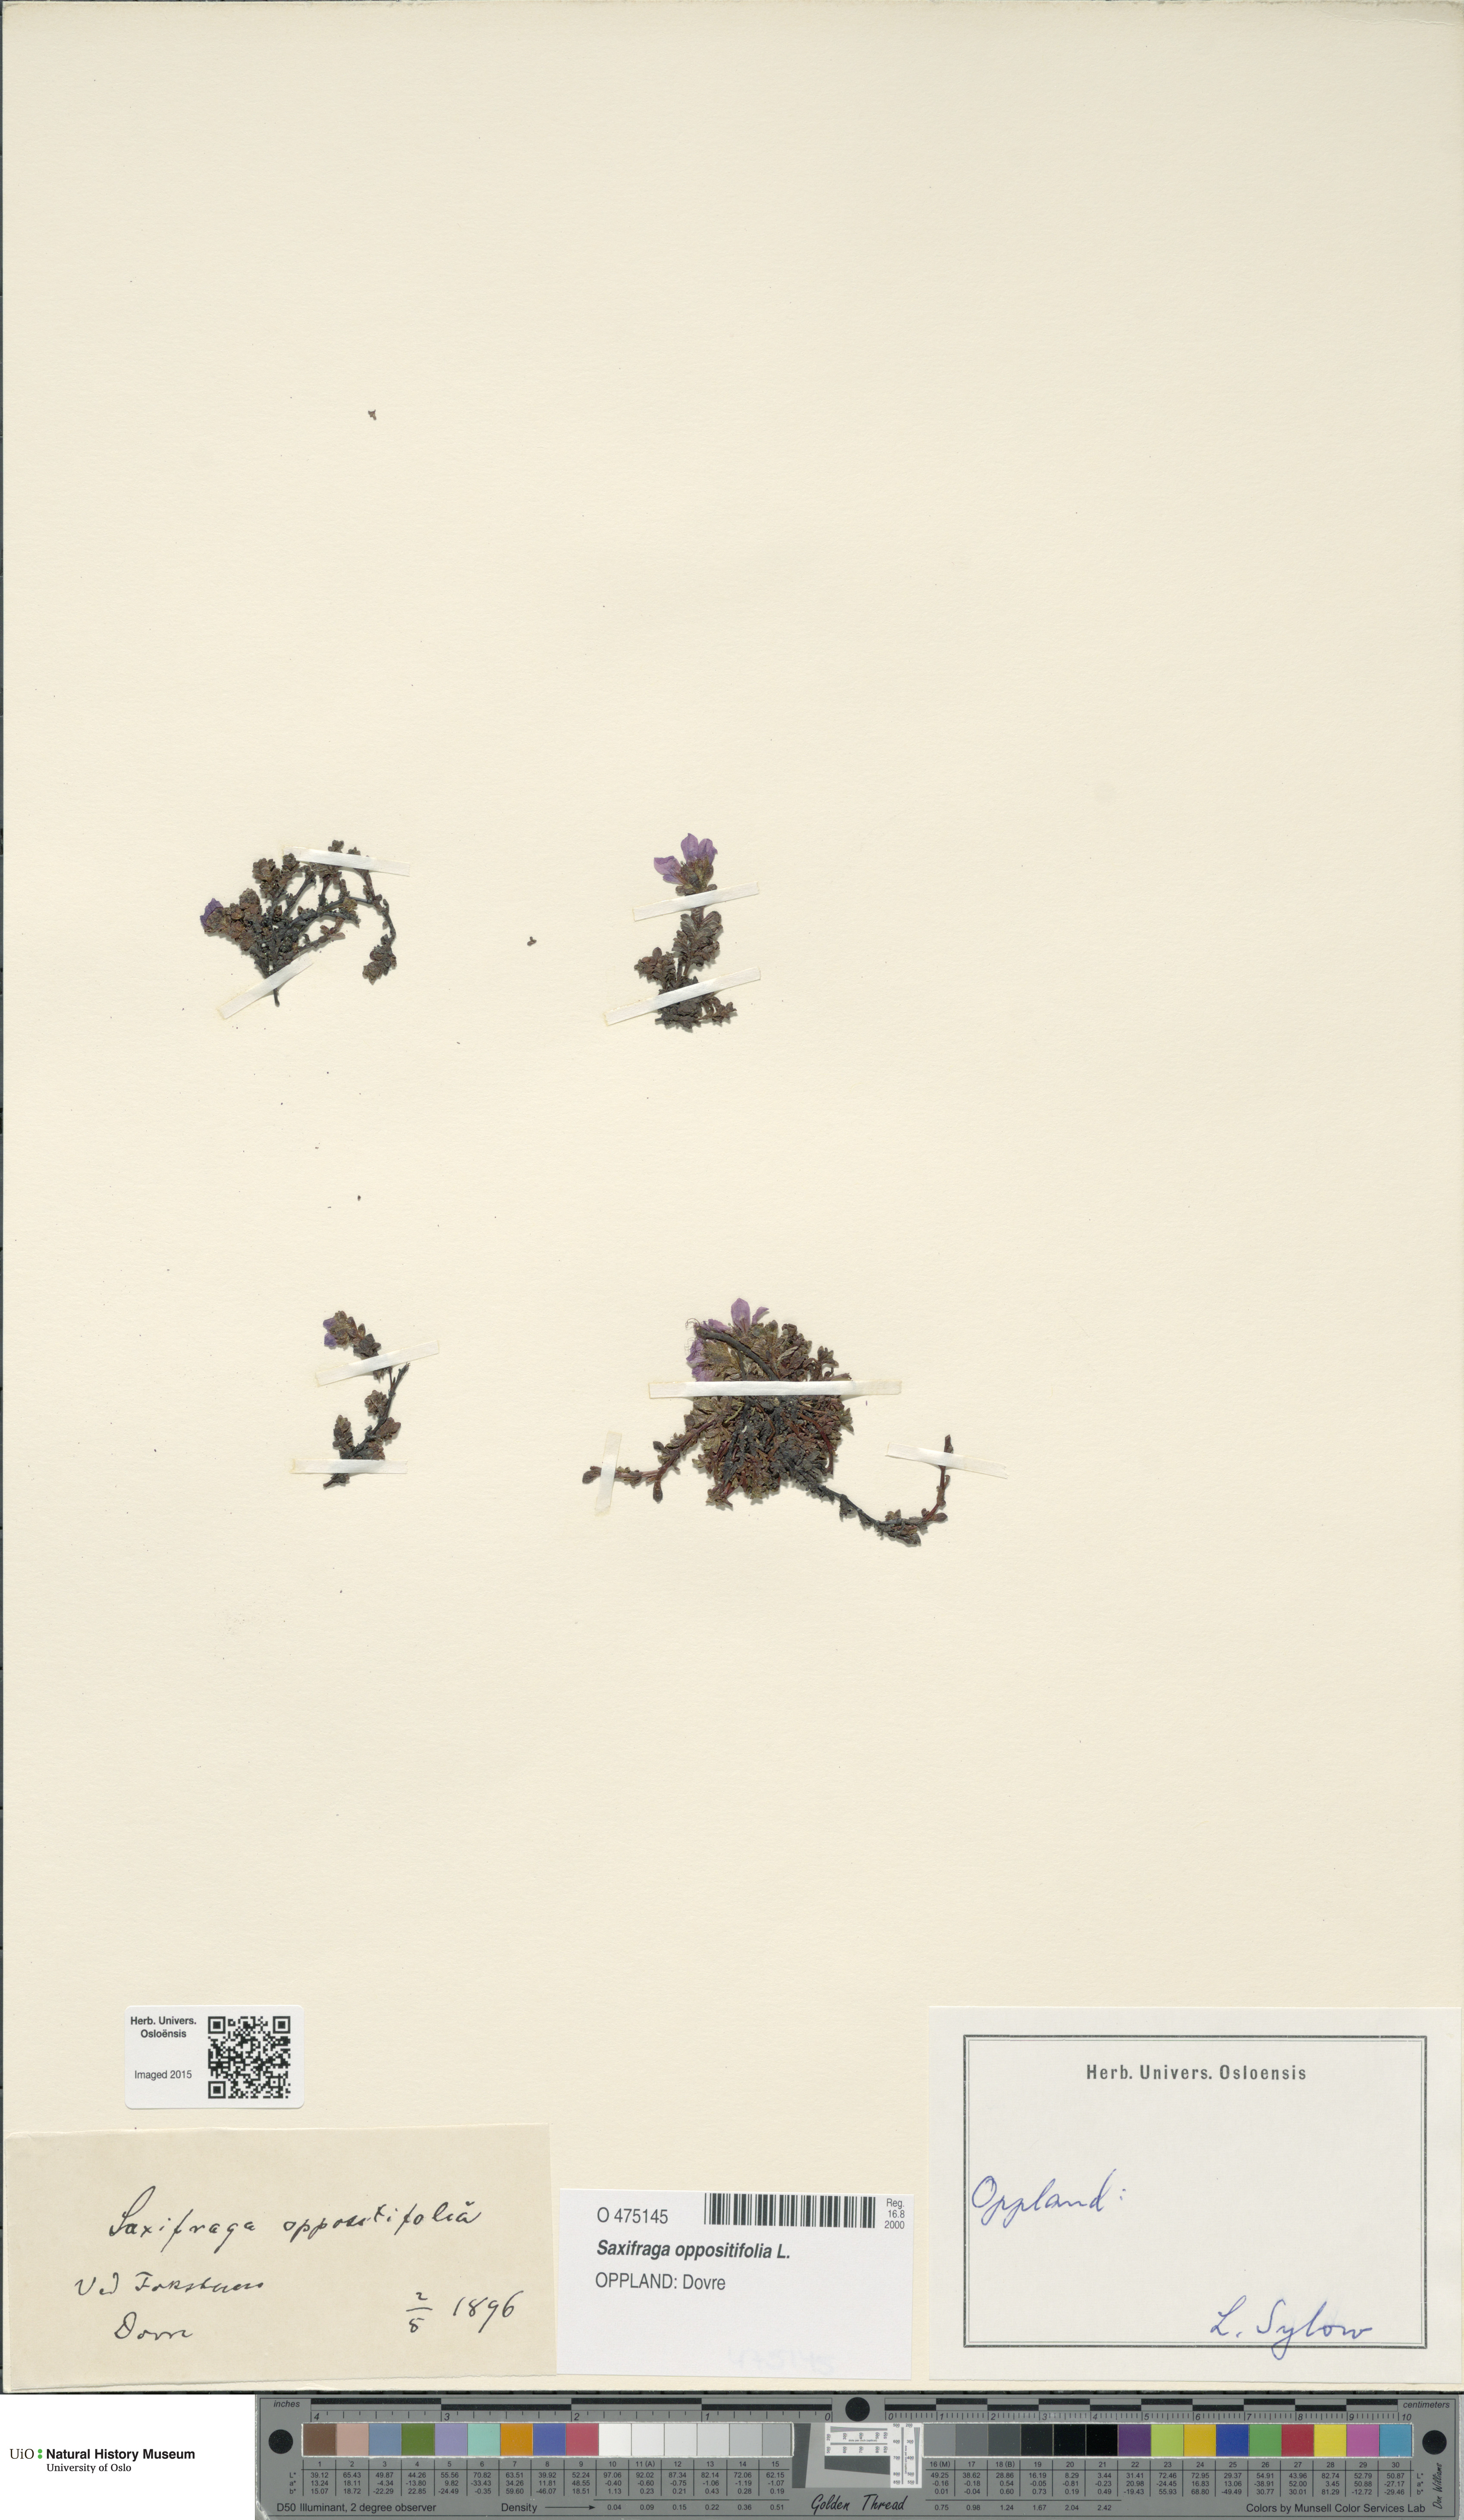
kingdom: Plantae
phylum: Tracheophyta
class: Magnoliopsida
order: Saxifragales
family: Saxifragaceae
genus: Saxifraga
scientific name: Saxifraga oppositifolia
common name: Purple saxifrage
